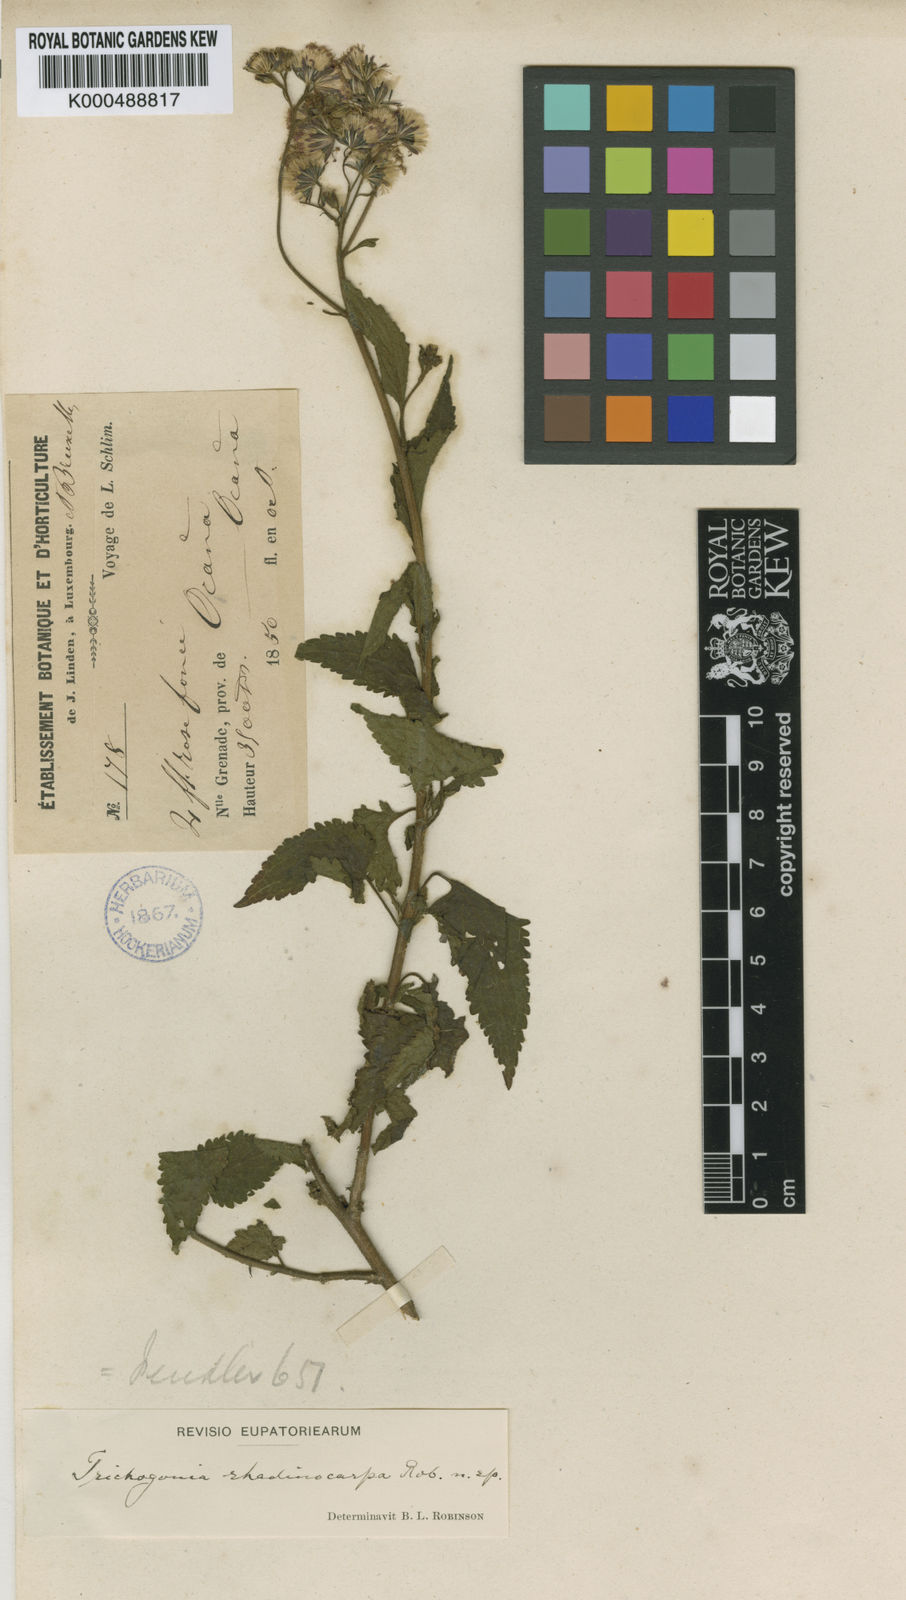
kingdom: Plantae
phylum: Tracheophyta
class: Magnoliopsida
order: Asterales
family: Asteraceae
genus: Trichogonia
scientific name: Trichogonia rhadinocarpa
